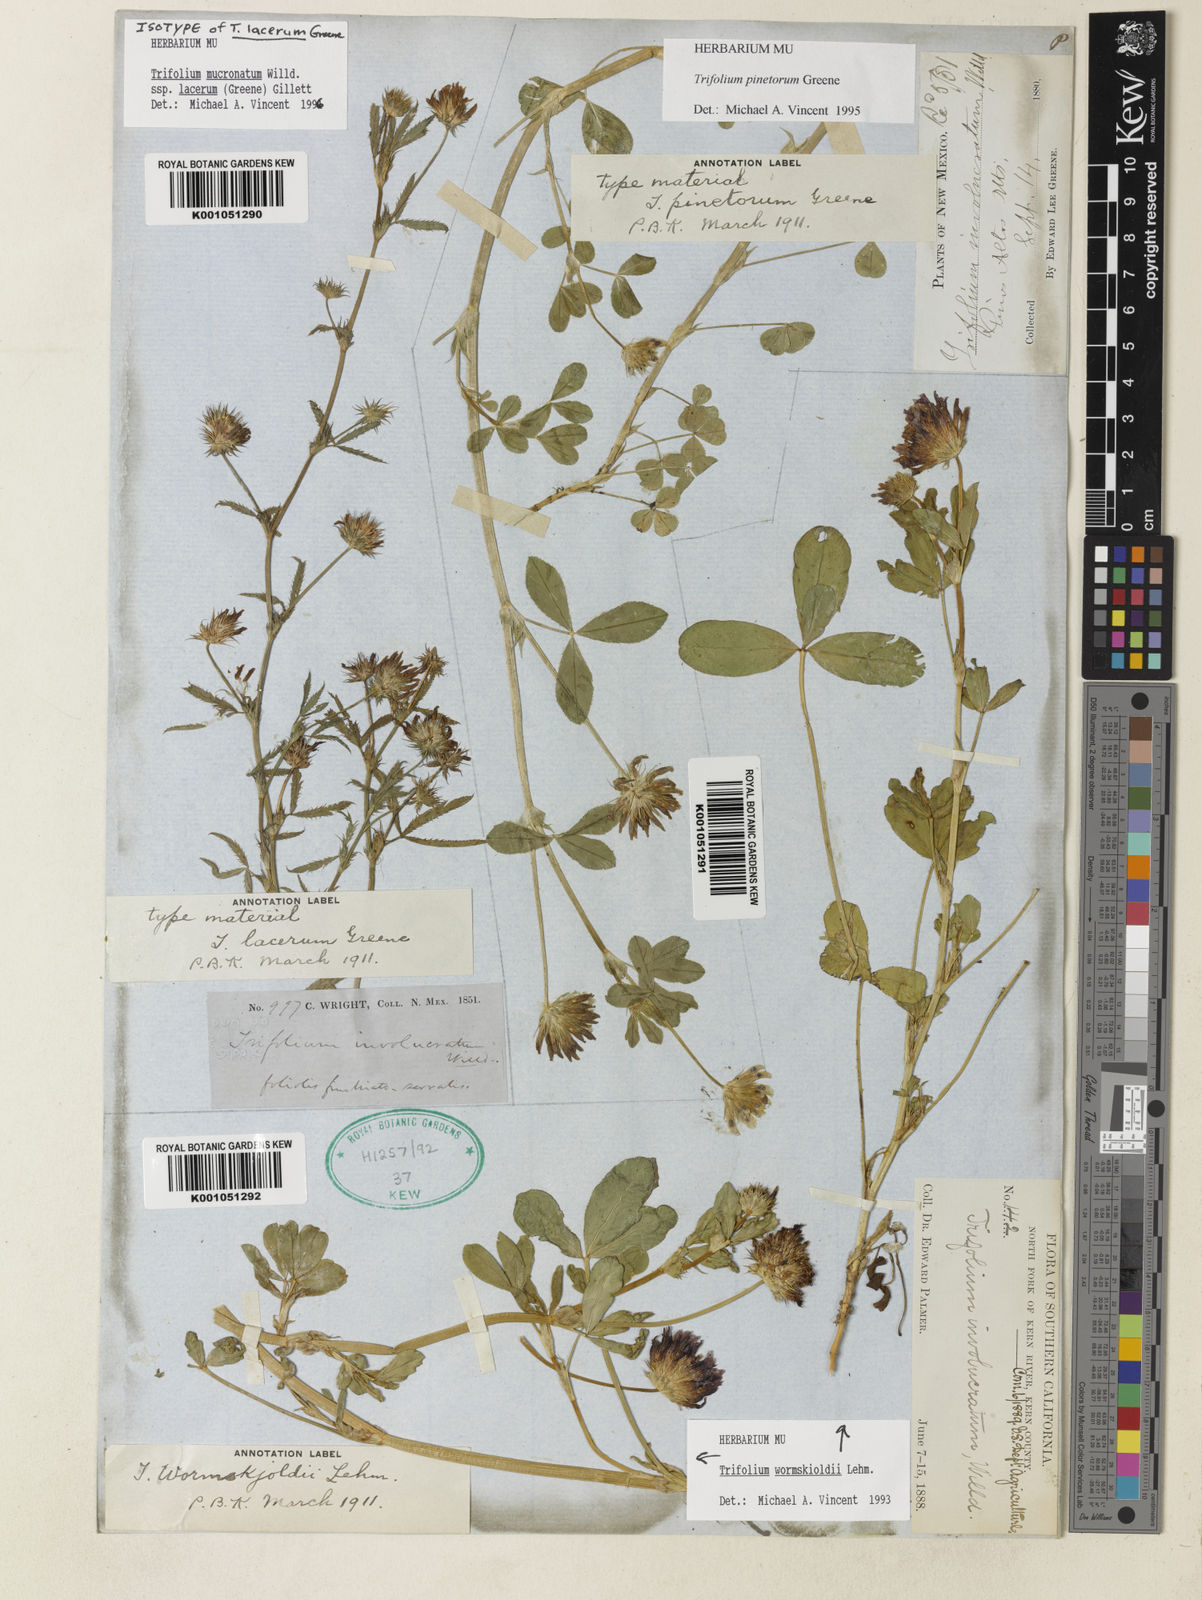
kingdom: Plantae
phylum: Tracheophyta
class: Magnoliopsida
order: Fabales
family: Fabaceae
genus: Trifolium
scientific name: Trifolium triaristatum
